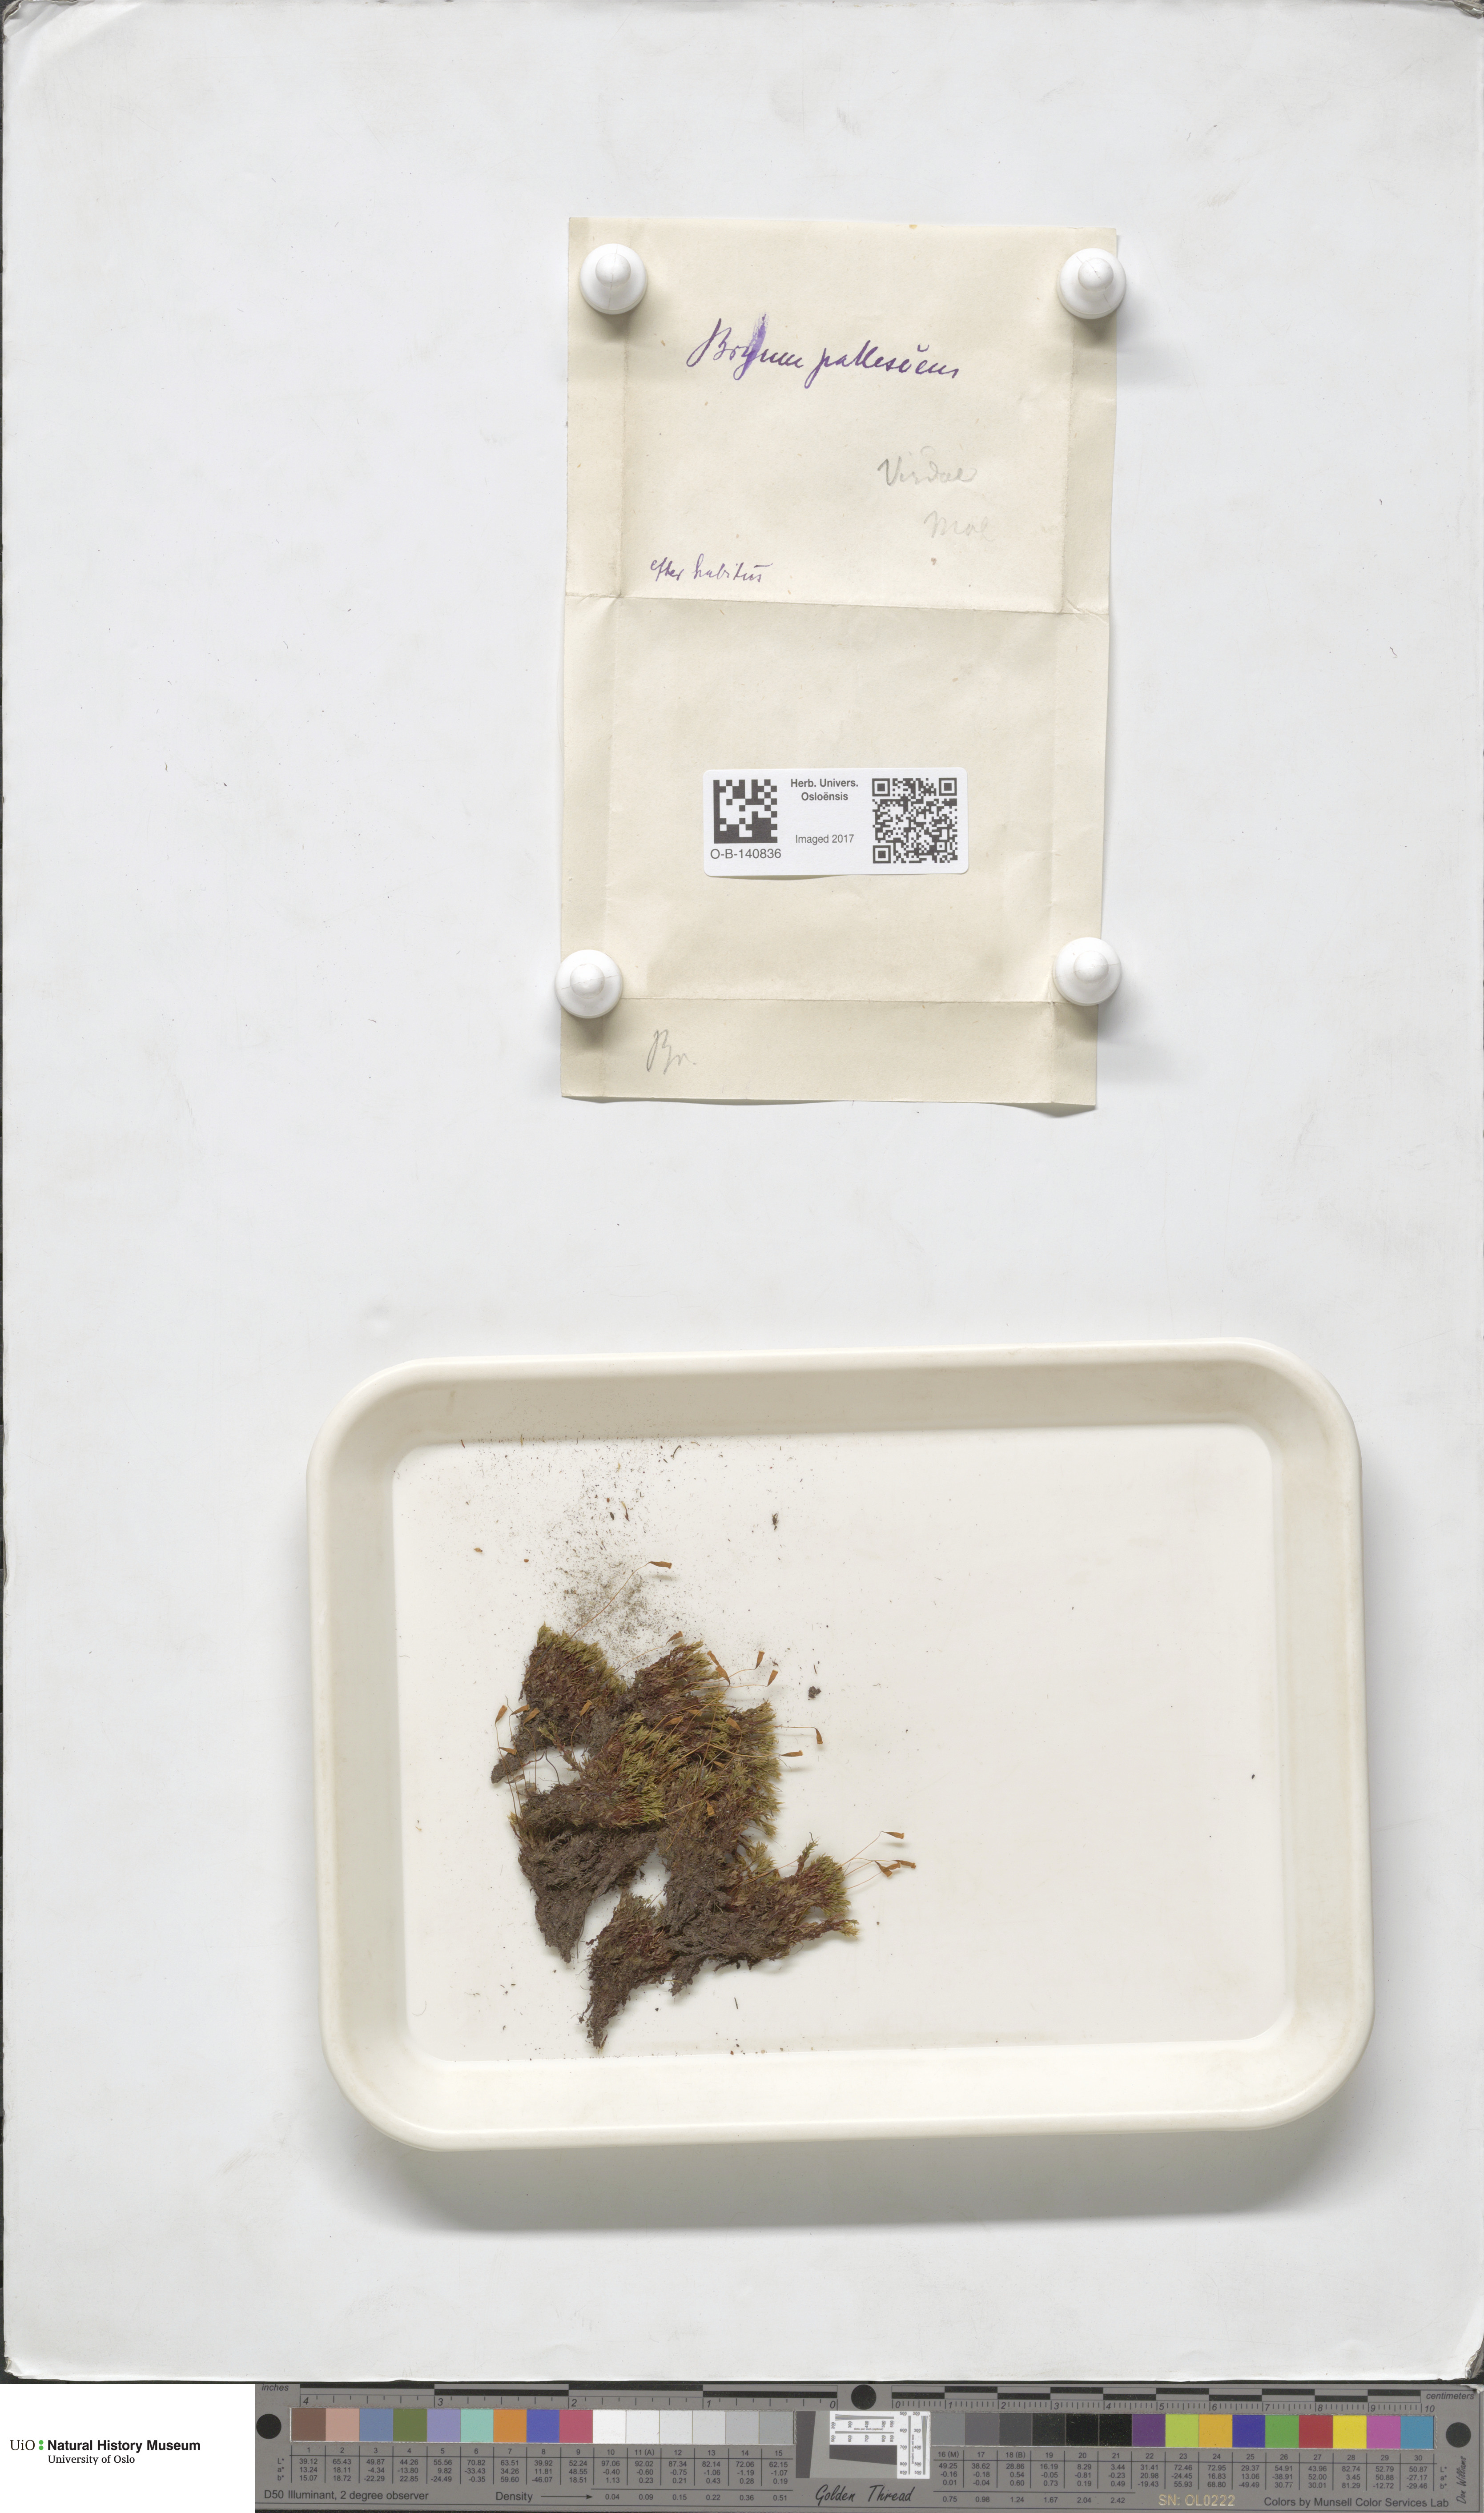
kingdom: Plantae
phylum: Bryophyta
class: Bryopsida
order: Bryales
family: Bryaceae
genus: Ptychostomum
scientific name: Ptychostomum pallescens
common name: Tall-clustered thread-moss
